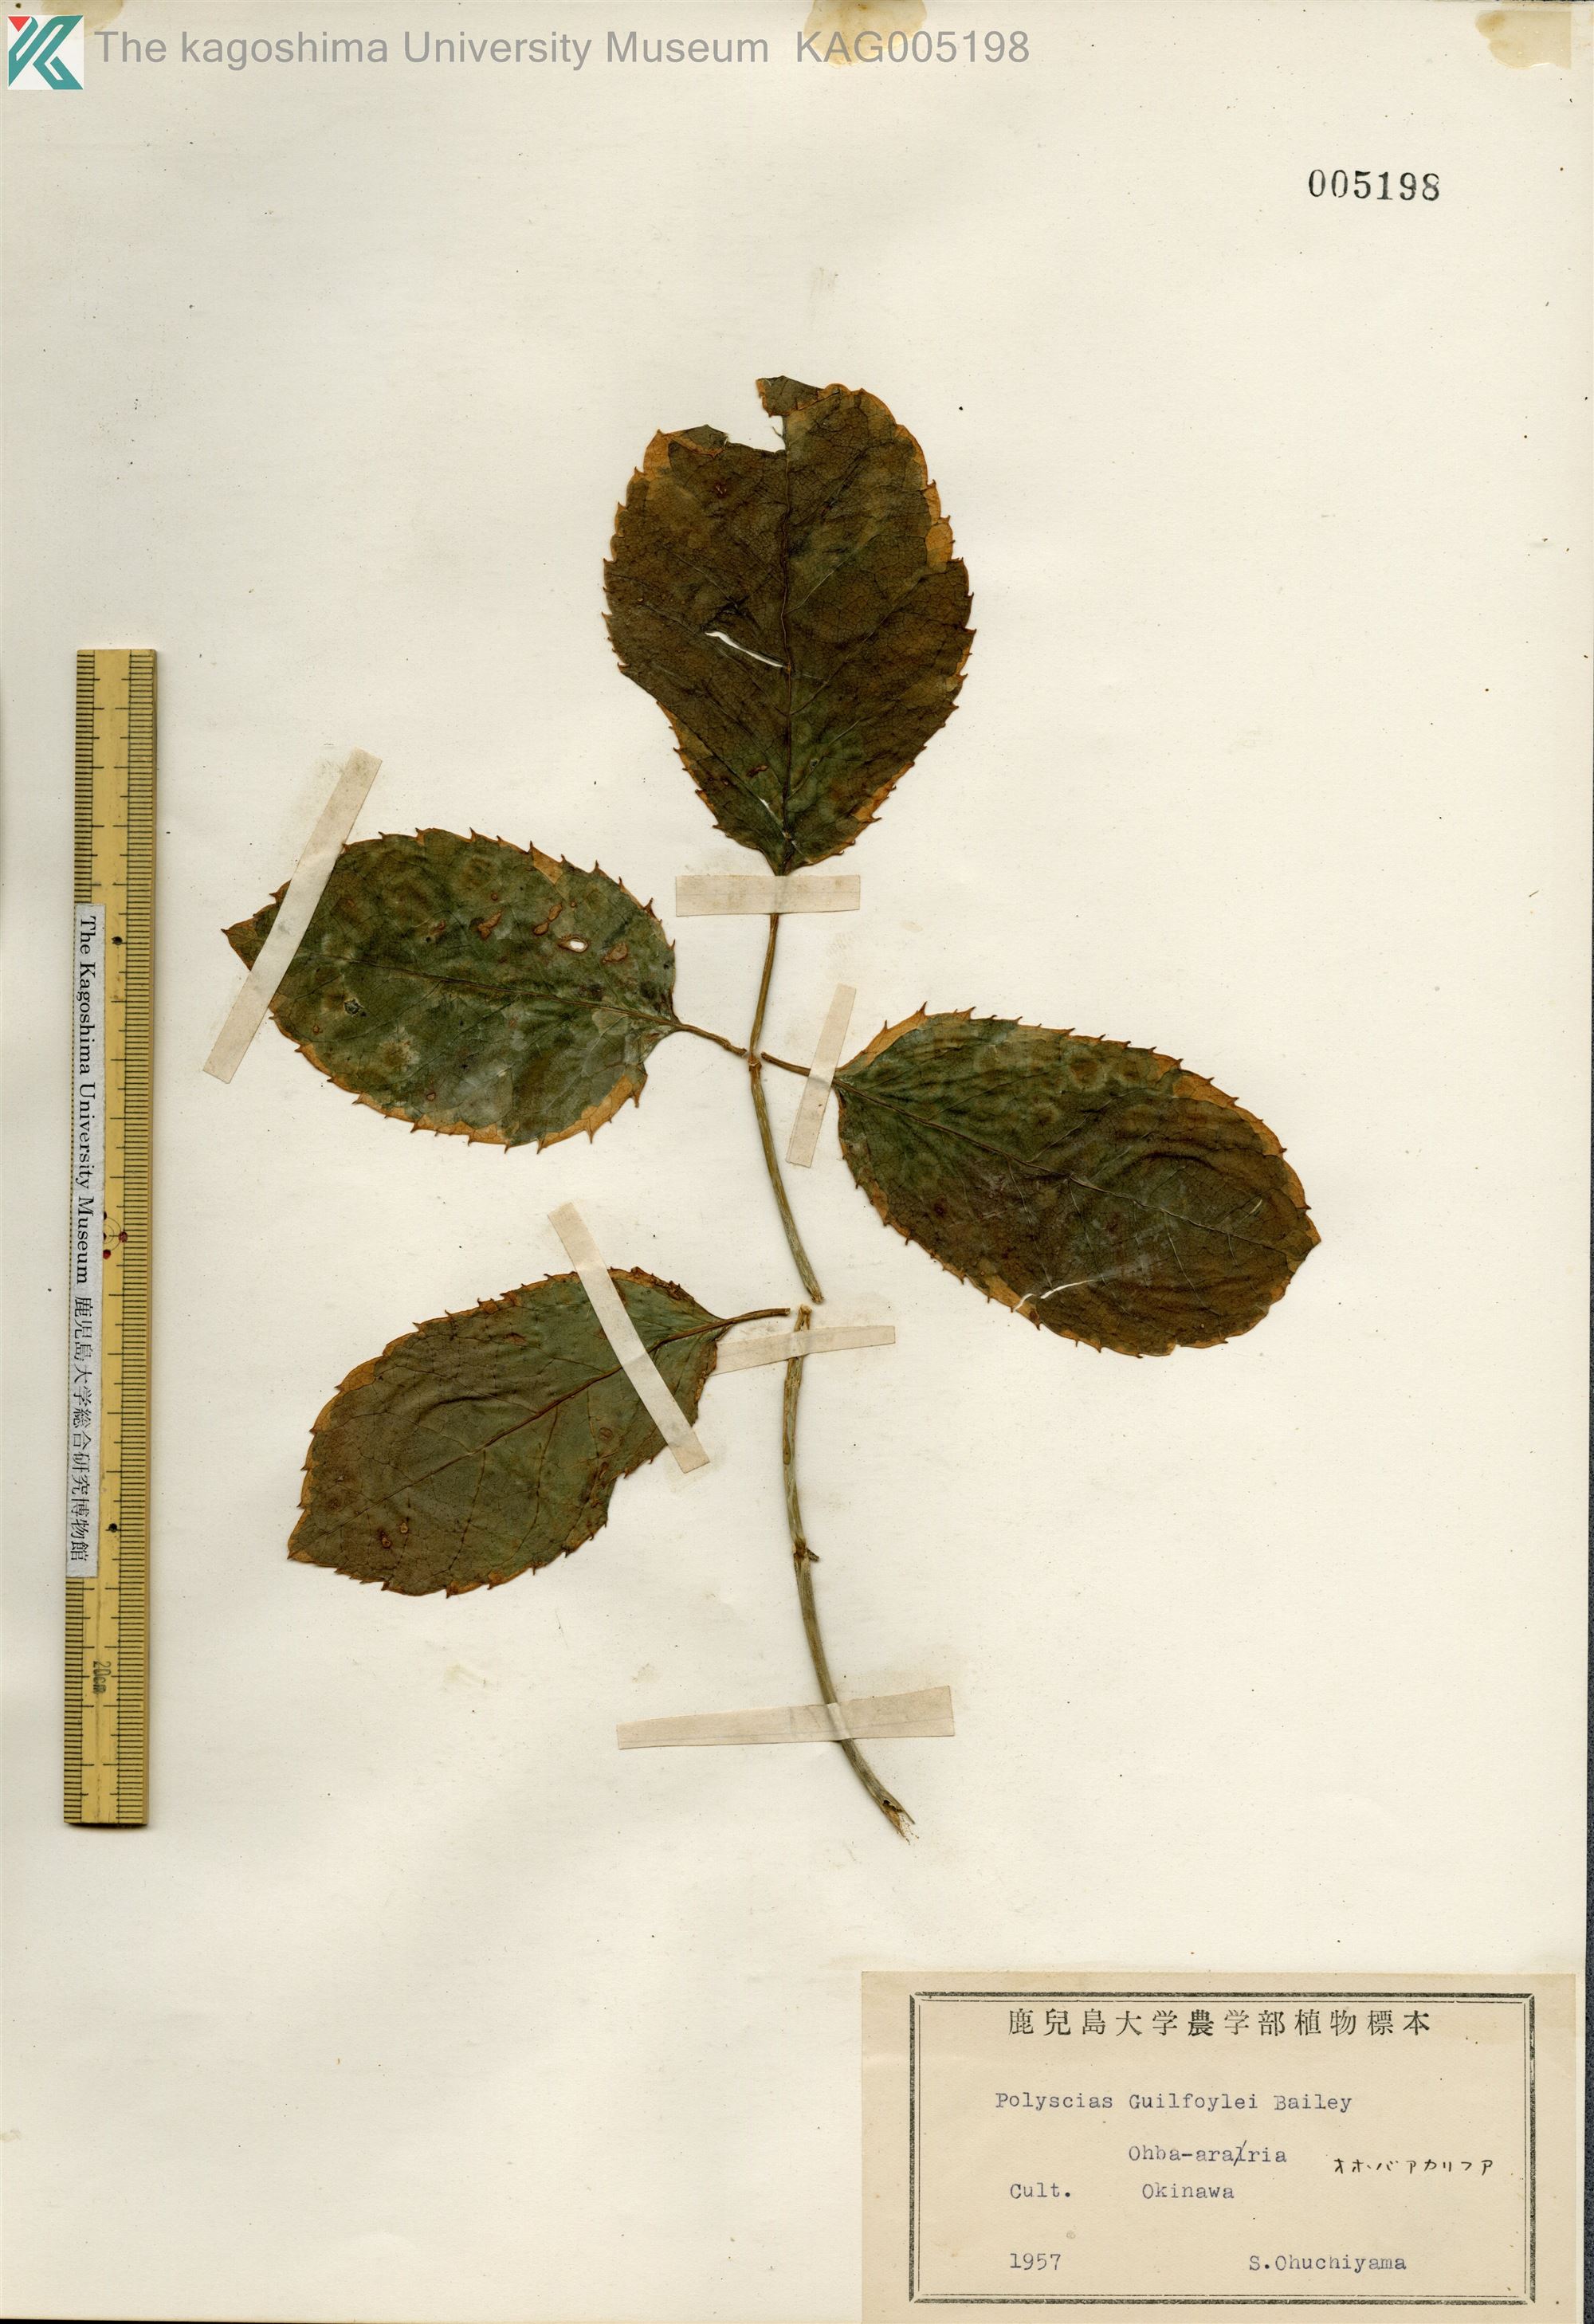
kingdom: Plantae
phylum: Tracheophyta
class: Magnoliopsida
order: Apiales
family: Araliaceae
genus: Polyscias
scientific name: Polyscias guilfoylei
